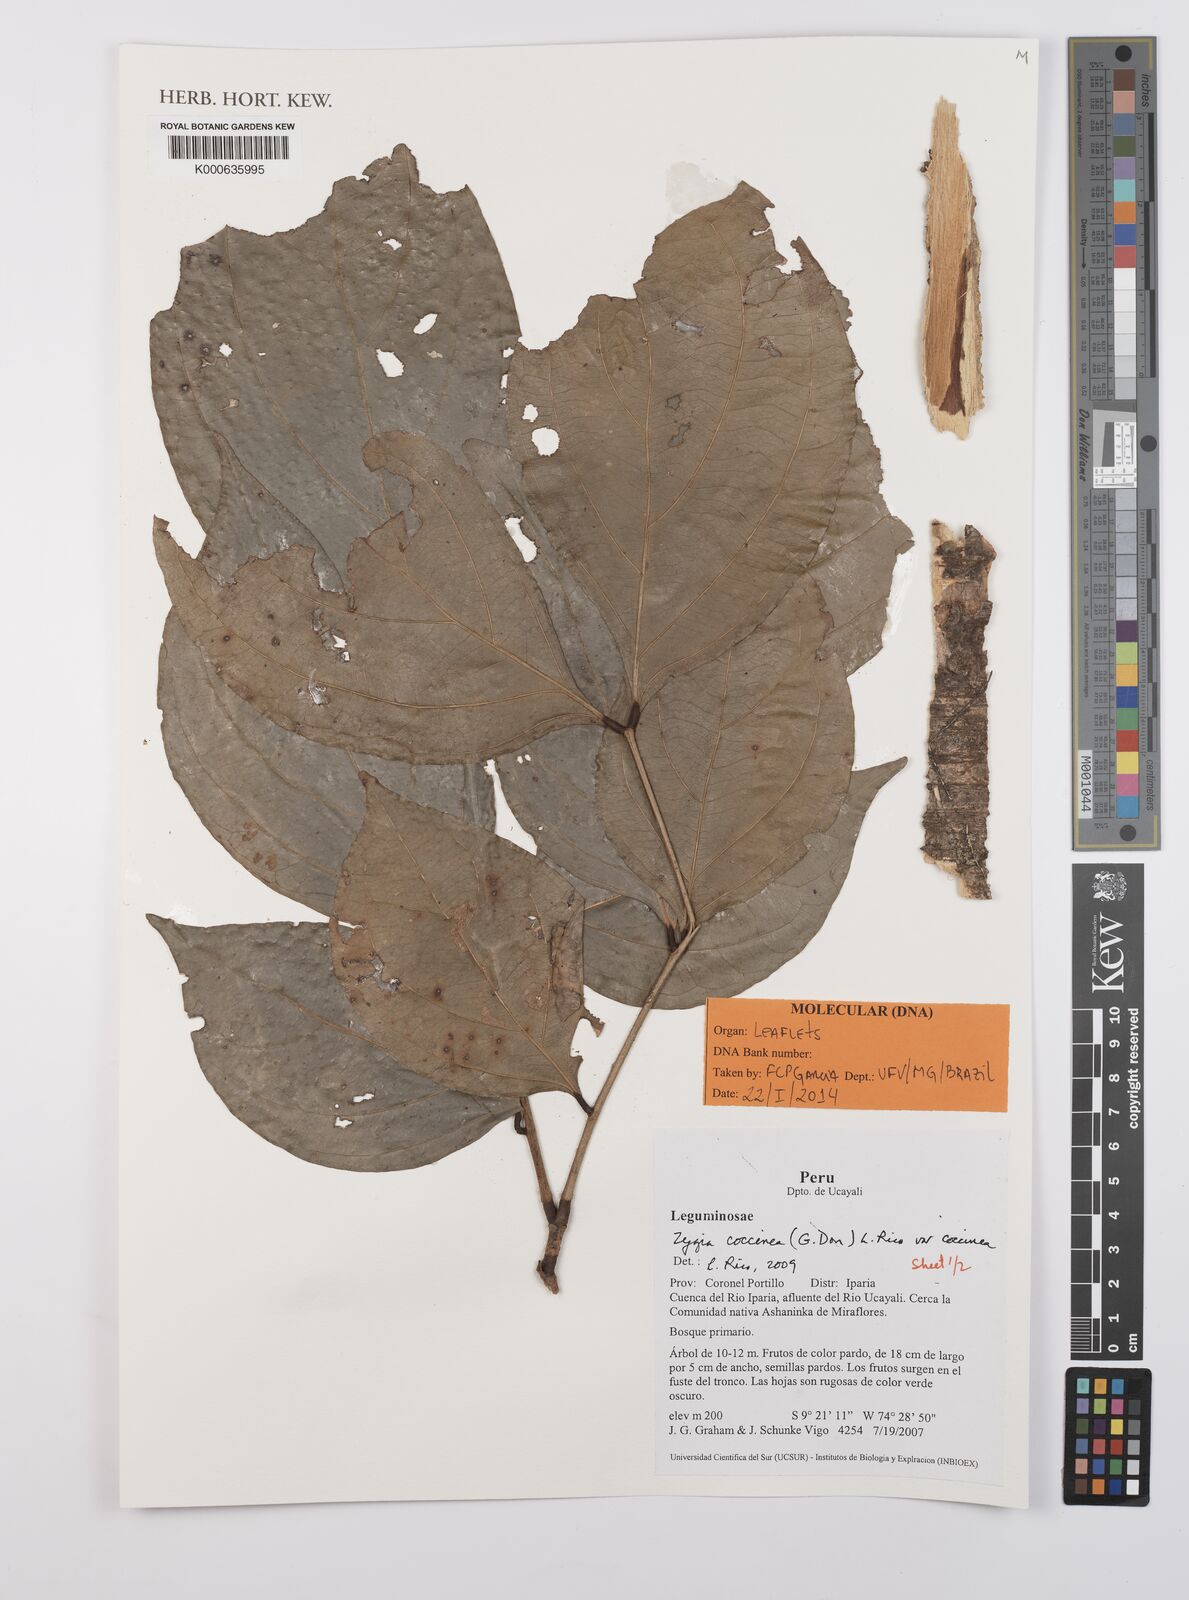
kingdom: Plantae
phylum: Tracheophyta
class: Magnoliopsida
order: Fabales
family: Fabaceae
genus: Zygia
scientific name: Zygia coccinea
